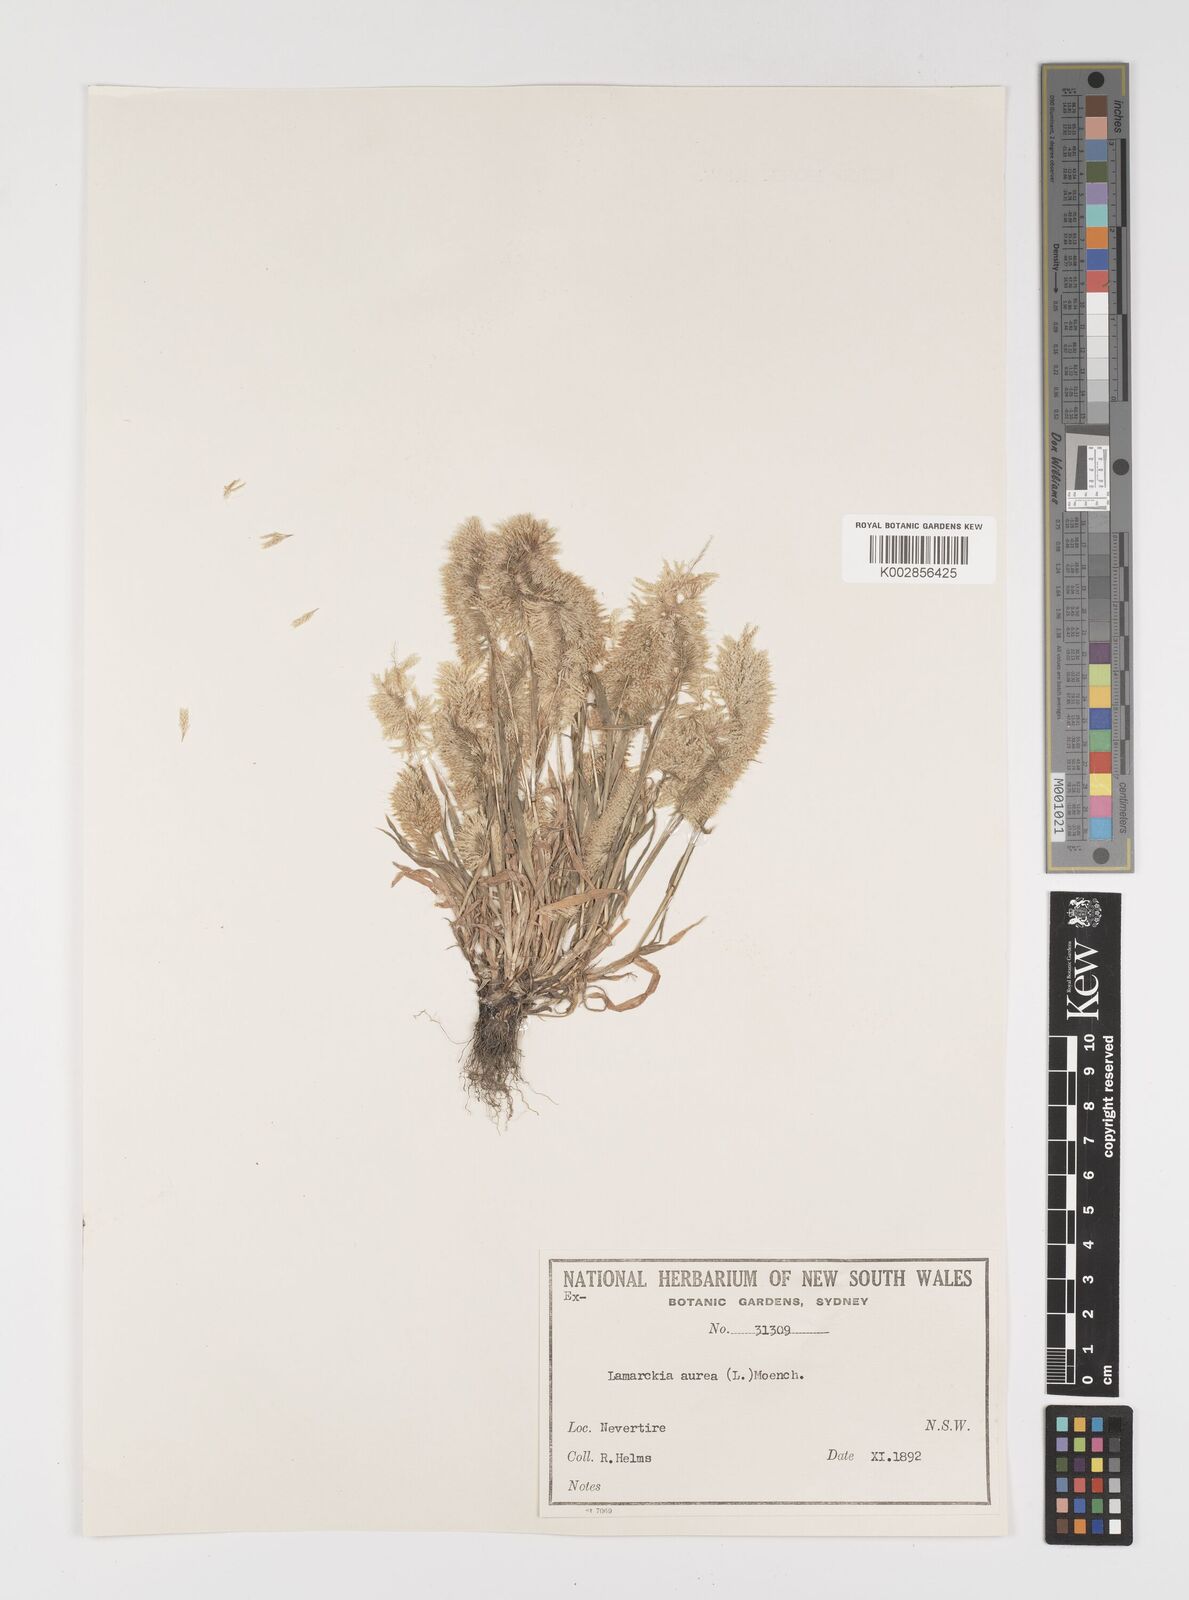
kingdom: Plantae
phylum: Tracheophyta
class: Liliopsida
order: Poales
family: Poaceae
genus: Lamarckia
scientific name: Lamarckia aurea
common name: Golden dog's-tail
